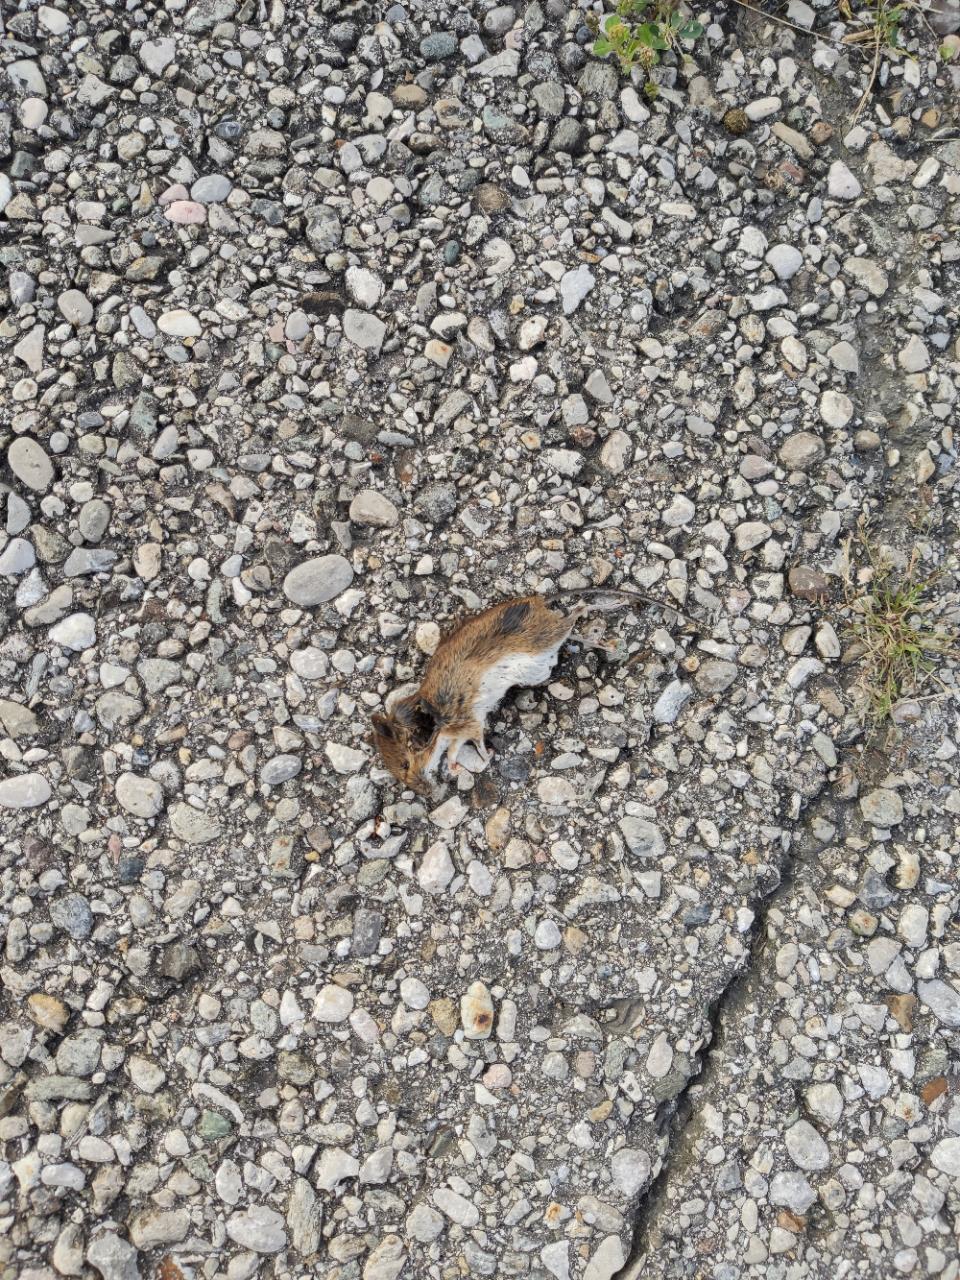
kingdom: Animalia
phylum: Chordata
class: Mammalia
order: Rodentia
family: Muridae
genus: Apodemus
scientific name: Apodemus
